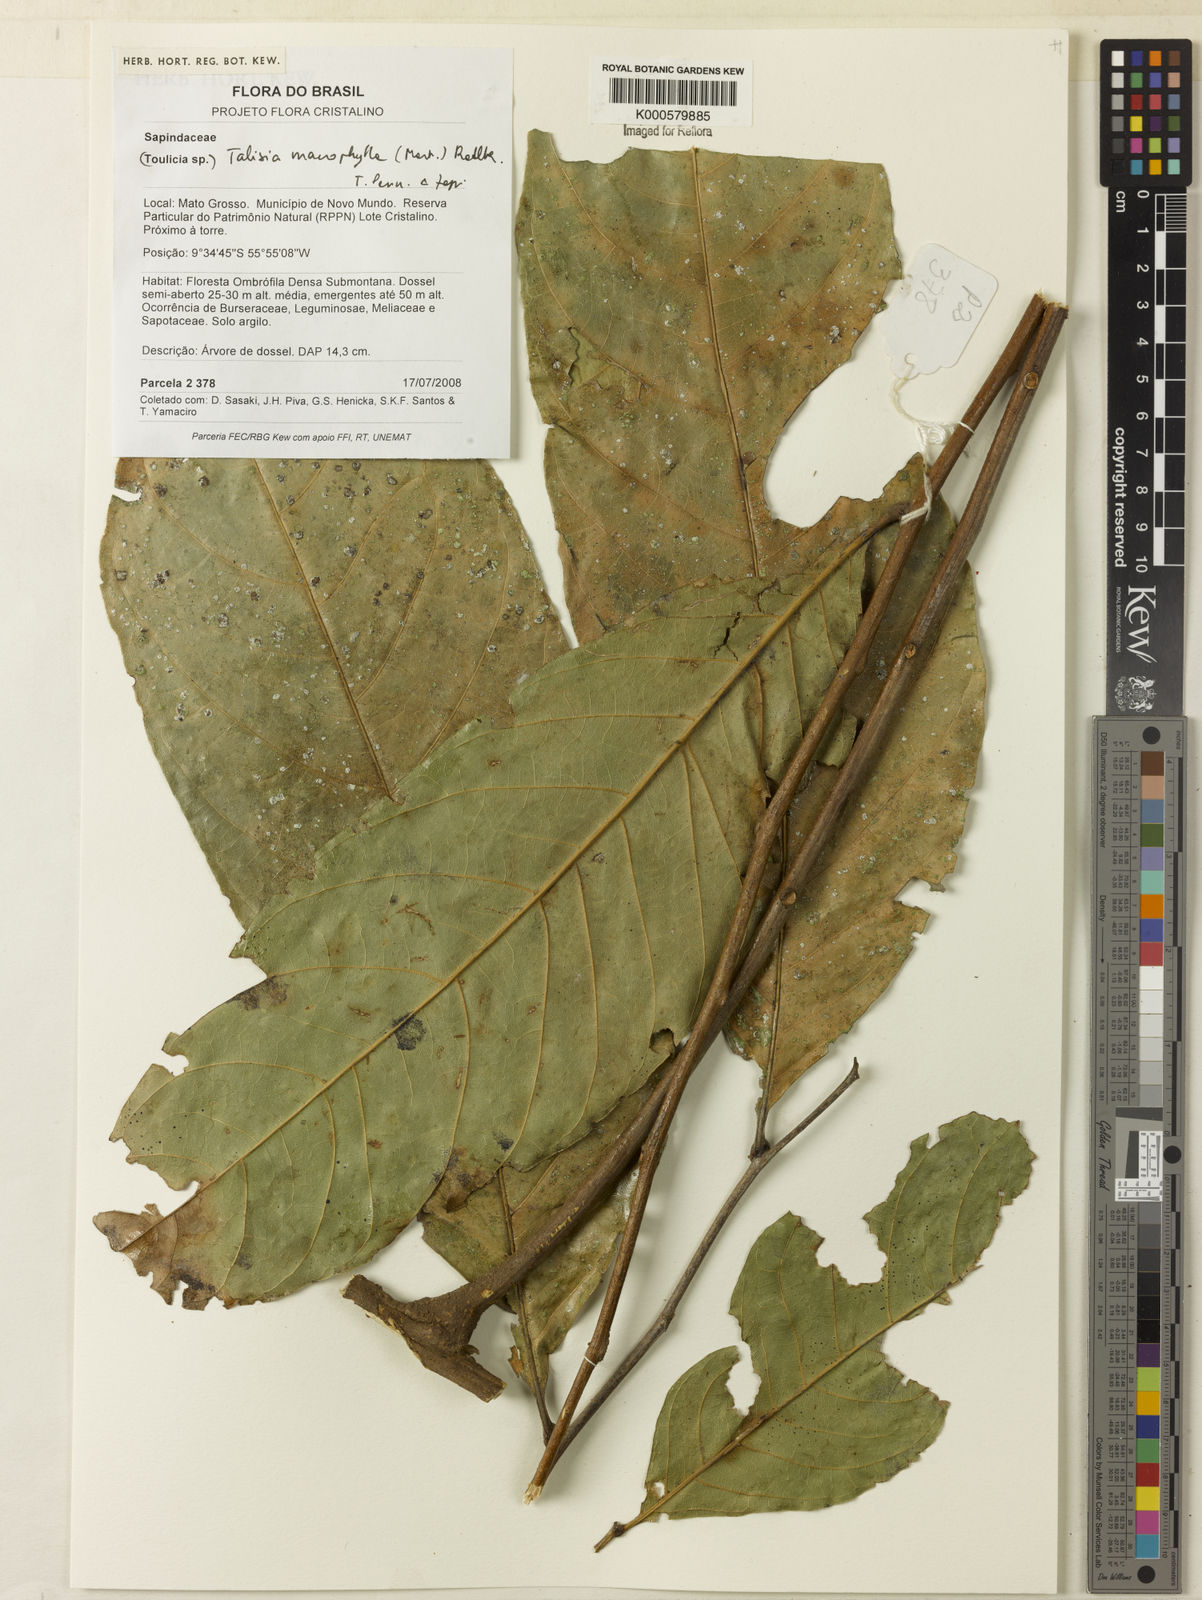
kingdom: Plantae
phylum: Tracheophyta
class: Magnoliopsida
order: Sapindales
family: Sapindaceae
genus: Talisia
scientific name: Talisia macrophylla
